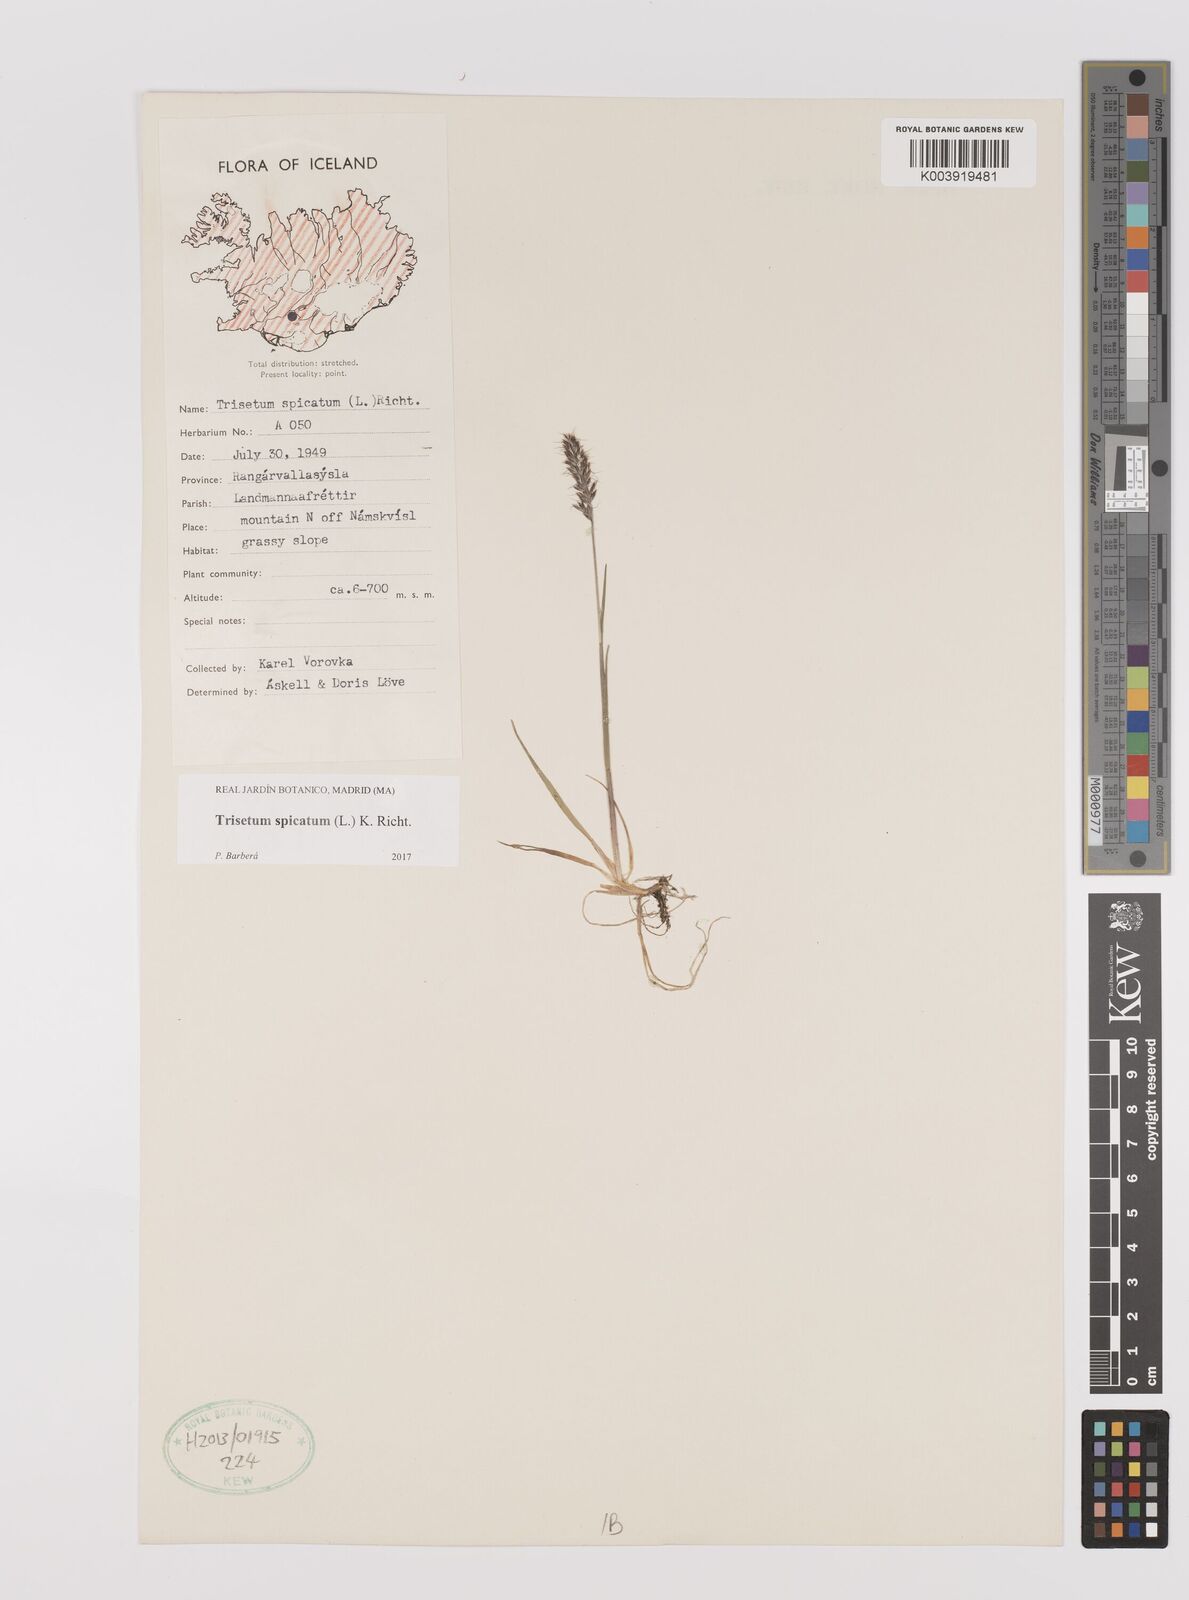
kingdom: Plantae
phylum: Tracheophyta
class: Liliopsida
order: Poales
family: Poaceae
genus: Koeleria
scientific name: Koeleria spicata
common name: Mountain trisetum
